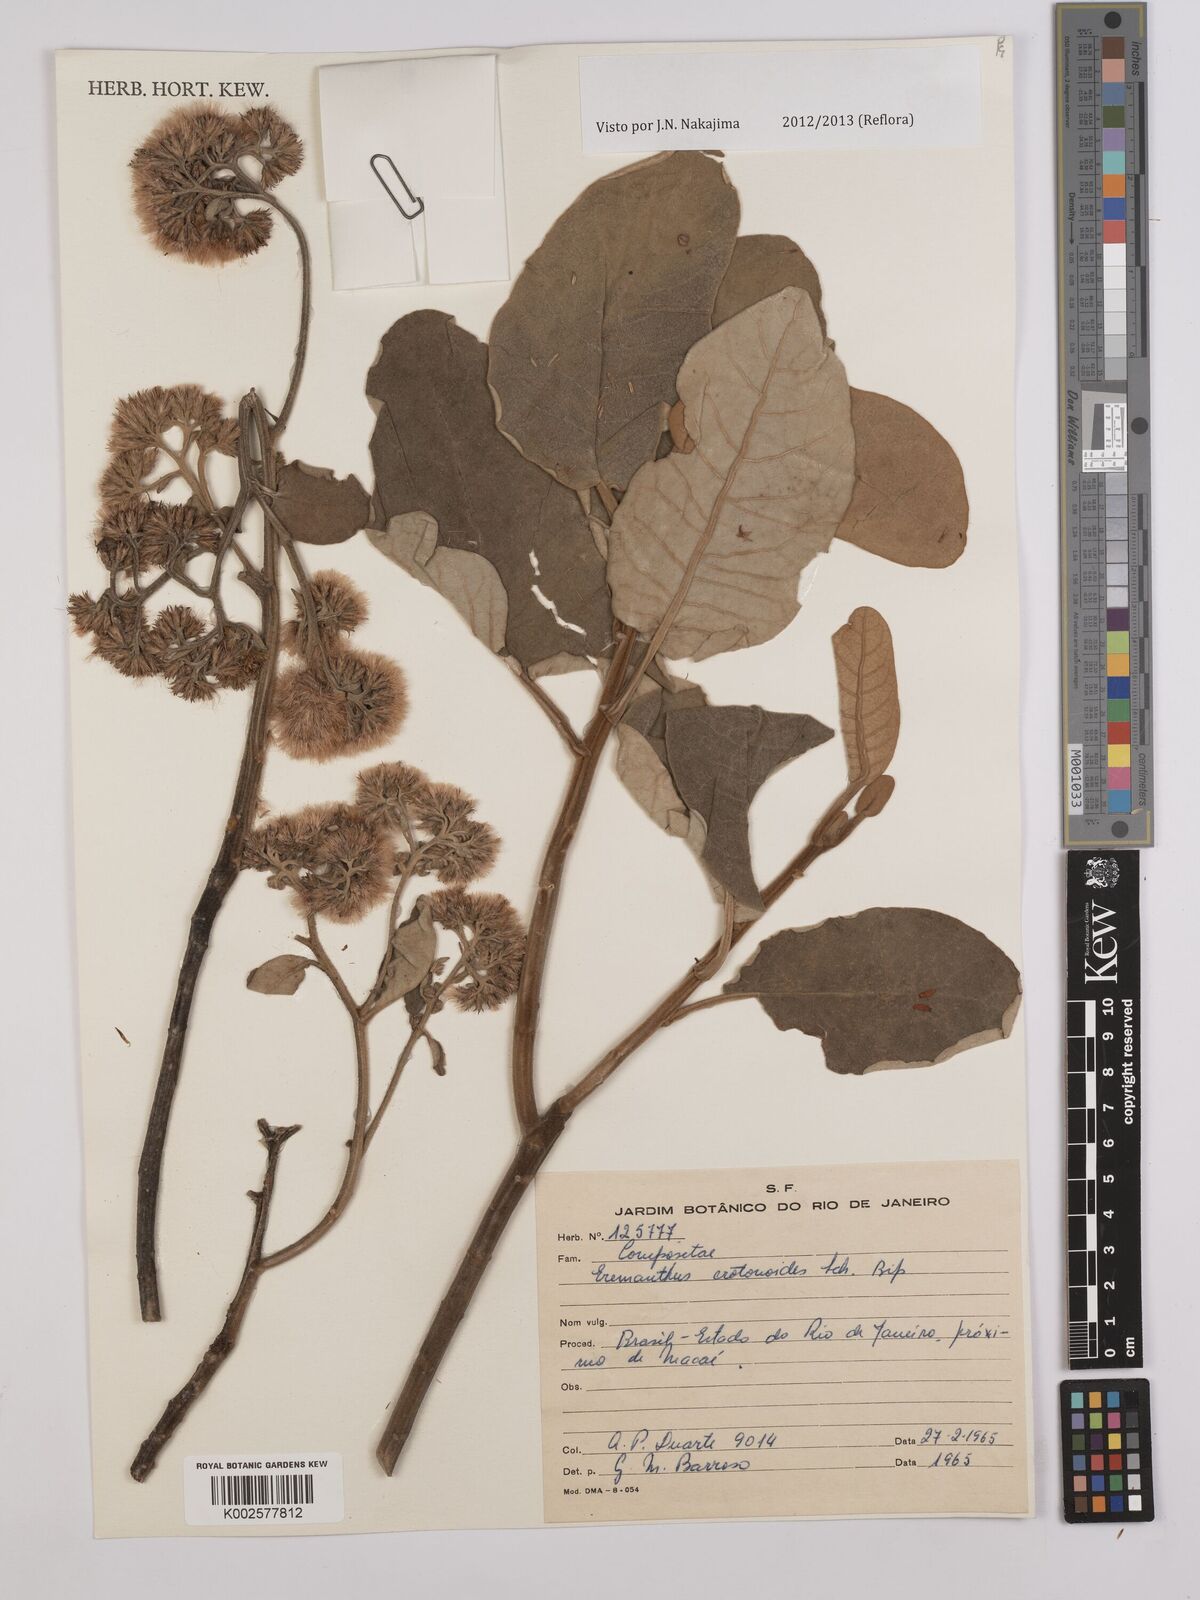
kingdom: Plantae
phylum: Tracheophyta
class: Magnoliopsida
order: Asterales
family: Asteraceae
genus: Eremanthus
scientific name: Eremanthus crotonoides
